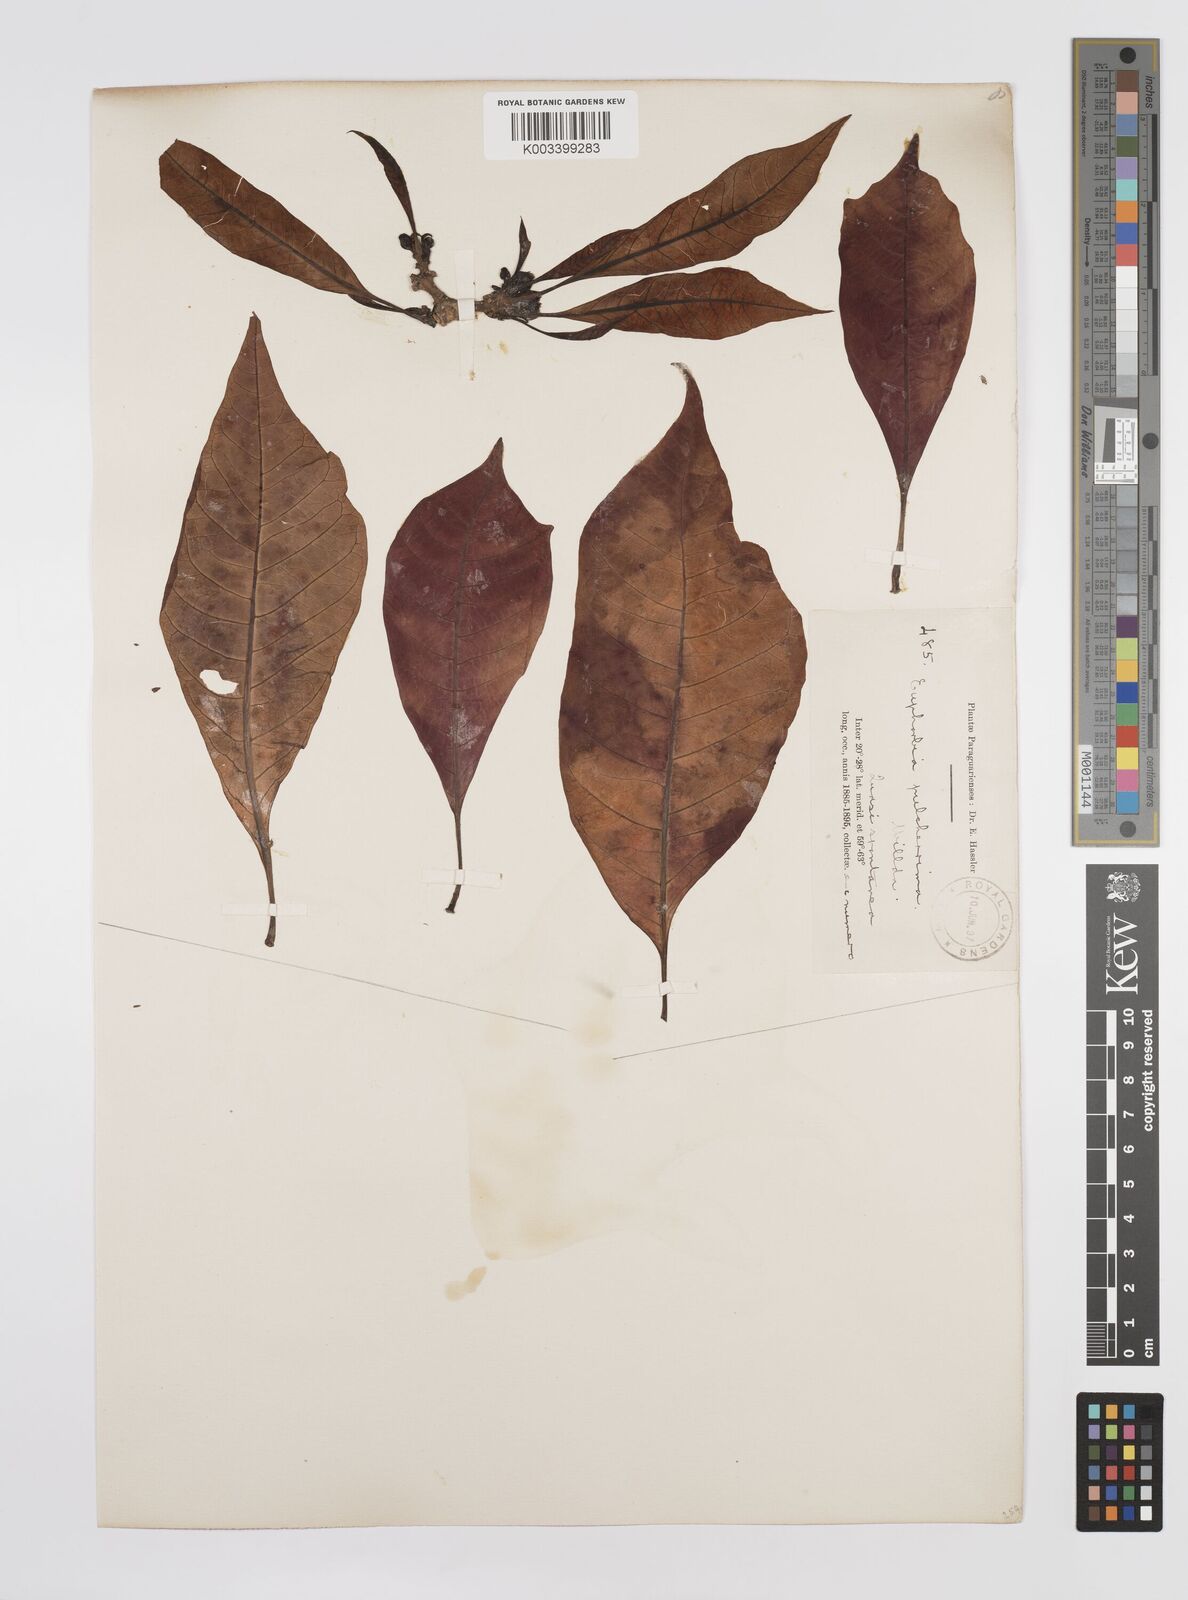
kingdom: Plantae
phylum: Tracheophyta
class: Magnoliopsida
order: Malpighiales
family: Euphorbiaceae
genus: Euphorbia
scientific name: Euphorbia pulcherrima
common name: Christmas-flower
